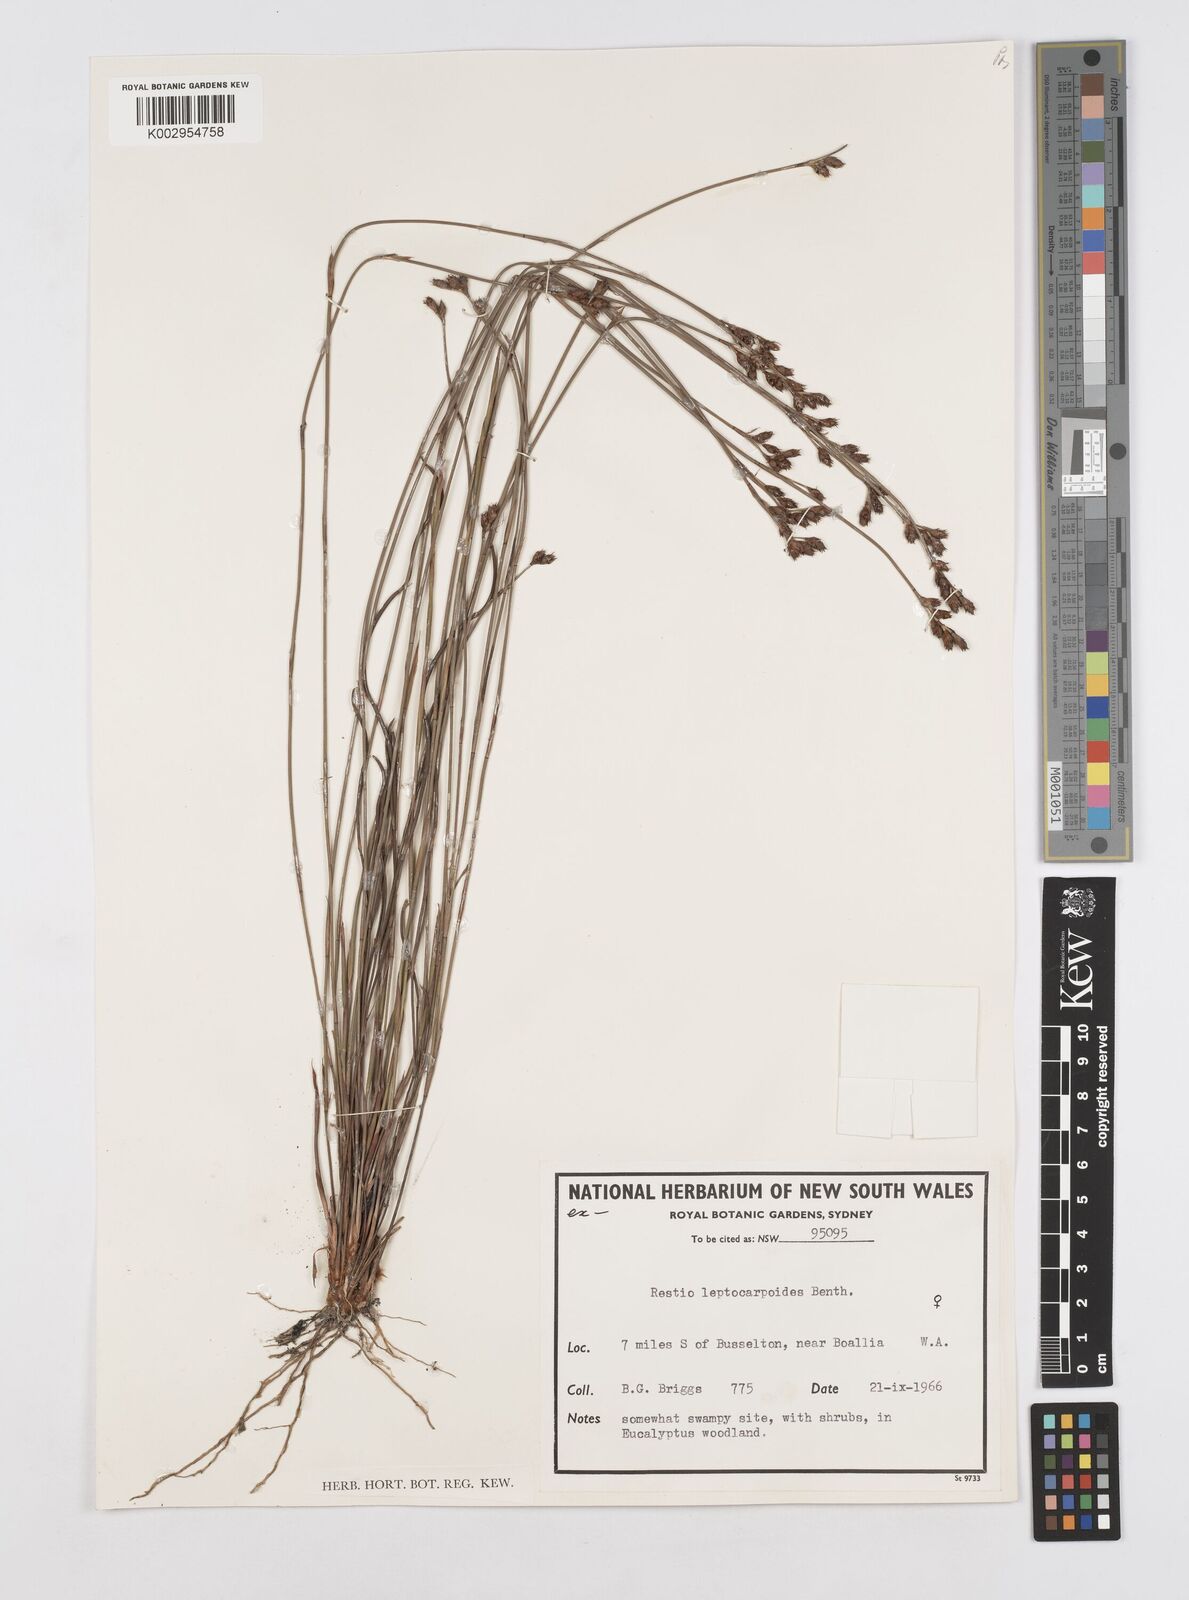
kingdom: Plantae
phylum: Tracheophyta
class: Liliopsida
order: Poales
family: Restionaceae
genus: Cytogonidium
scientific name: Cytogonidium leptocarpoides
